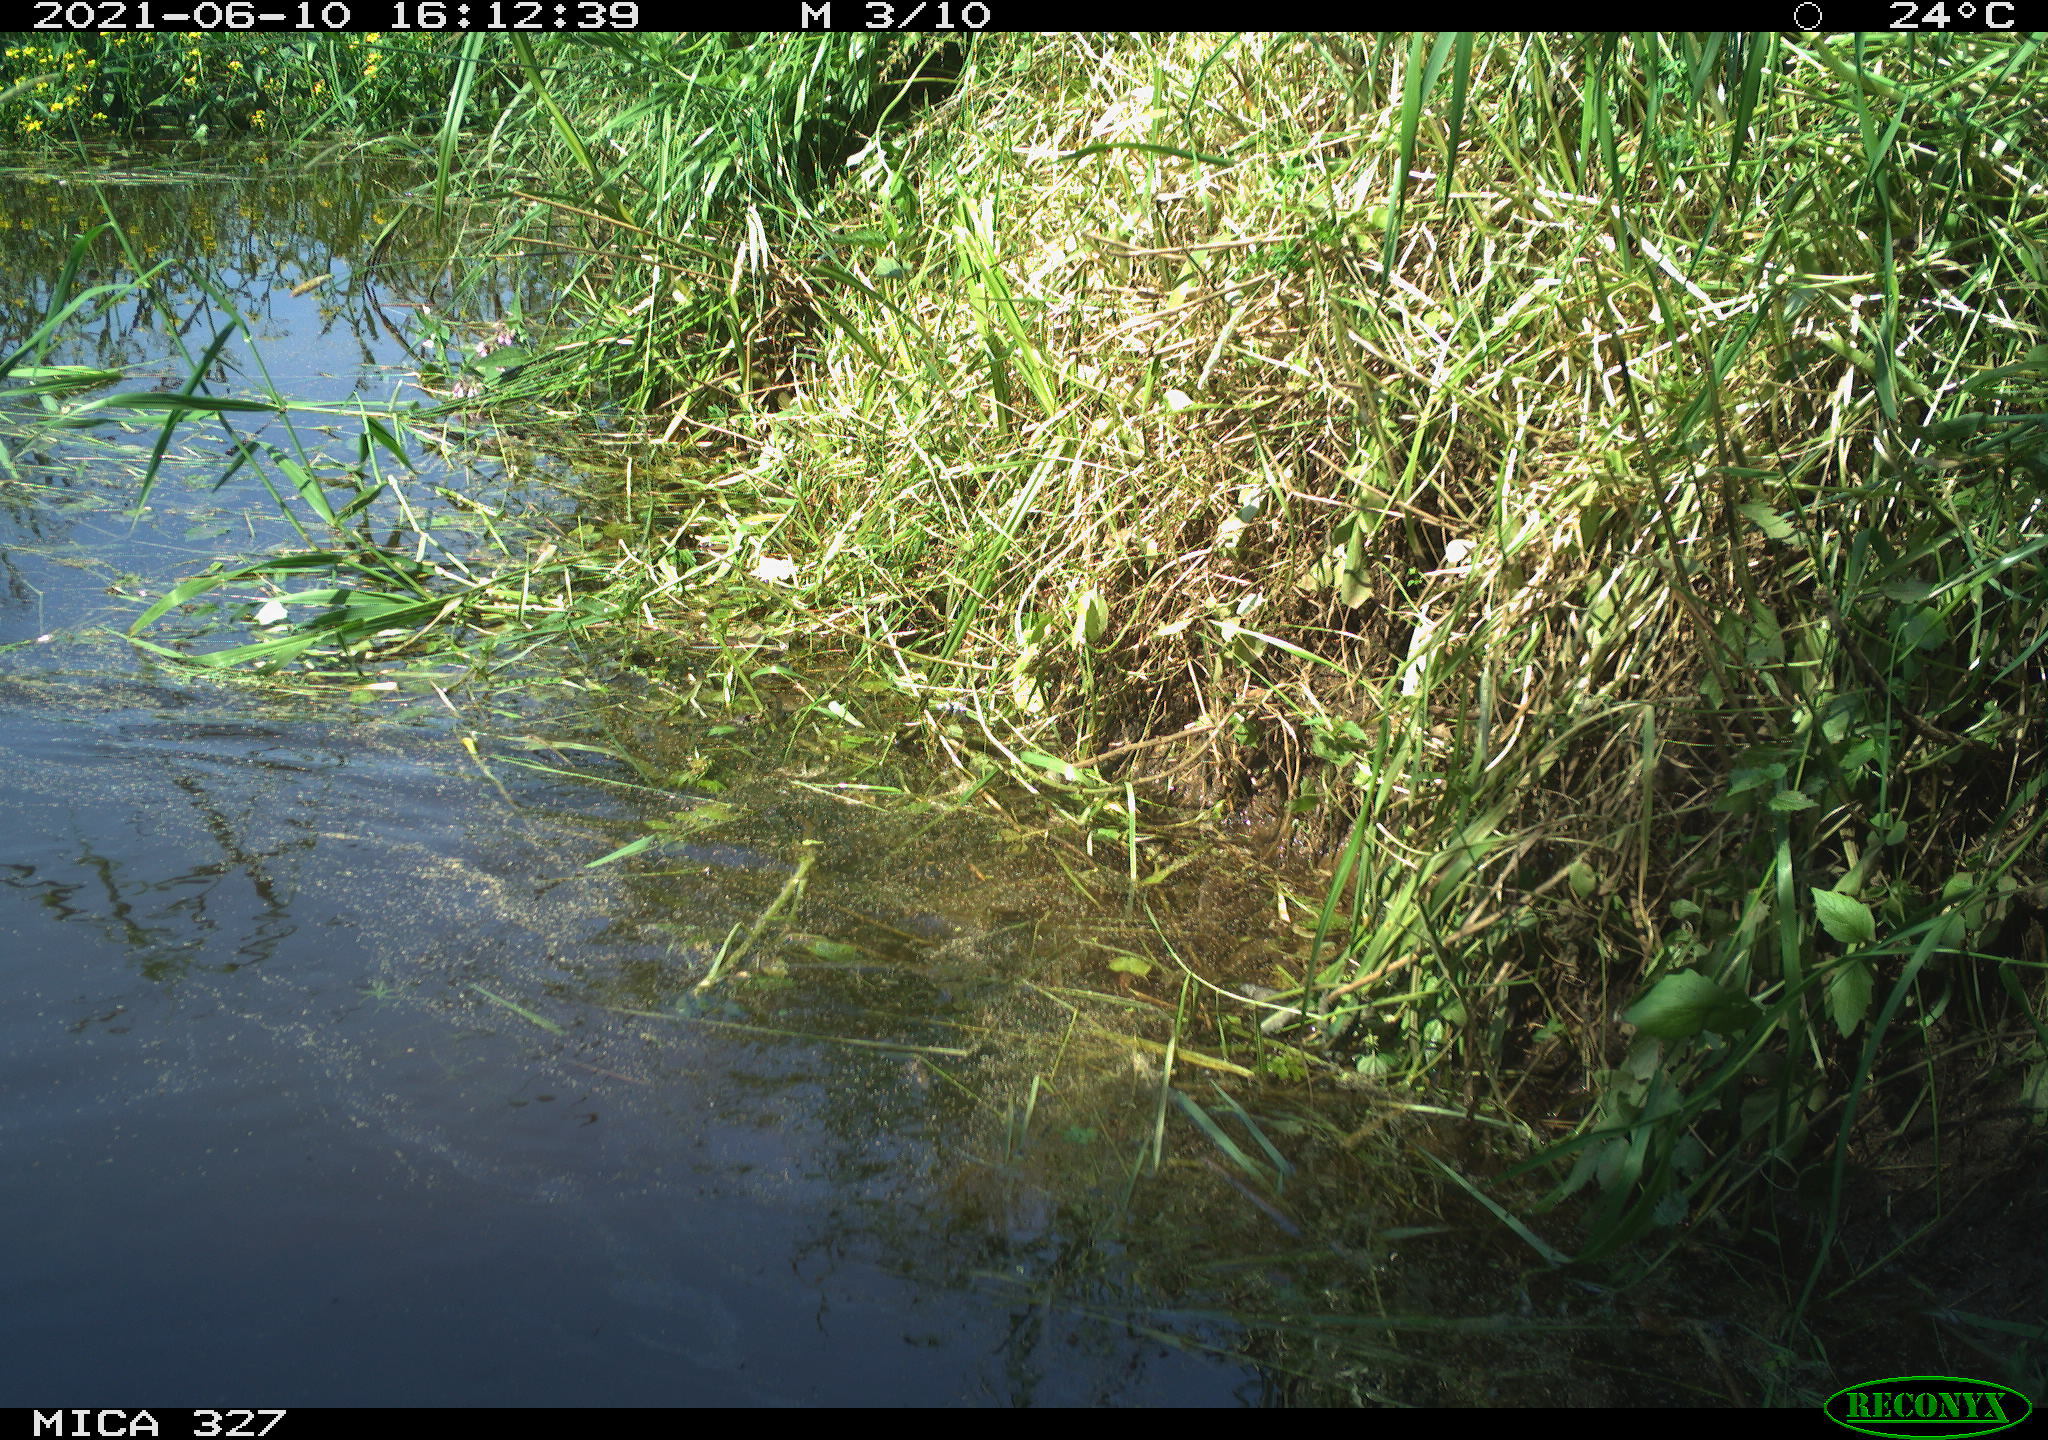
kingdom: Animalia
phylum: Chordata
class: Aves
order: Gruiformes
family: Rallidae
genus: Fulica
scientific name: Fulica atra
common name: Eurasian coot
